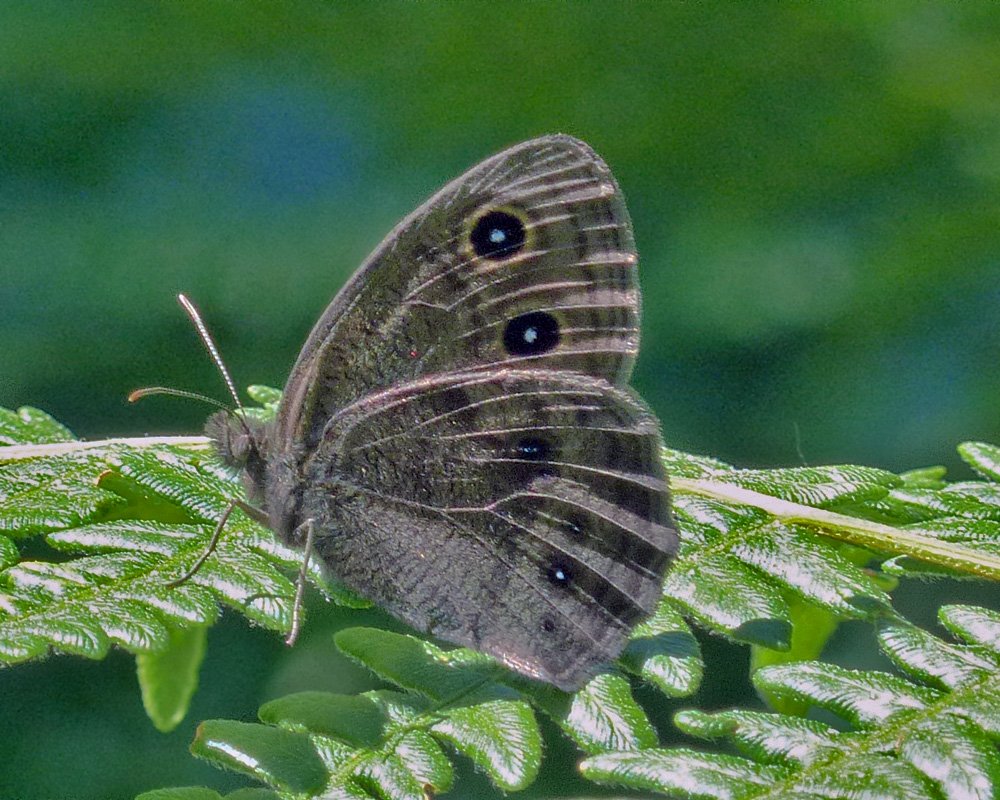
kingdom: Animalia
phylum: Arthropoda
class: Insecta
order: Lepidoptera
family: Nymphalidae
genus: Cercyonis
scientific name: Cercyonis pegala
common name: Common Wood-Nymph
